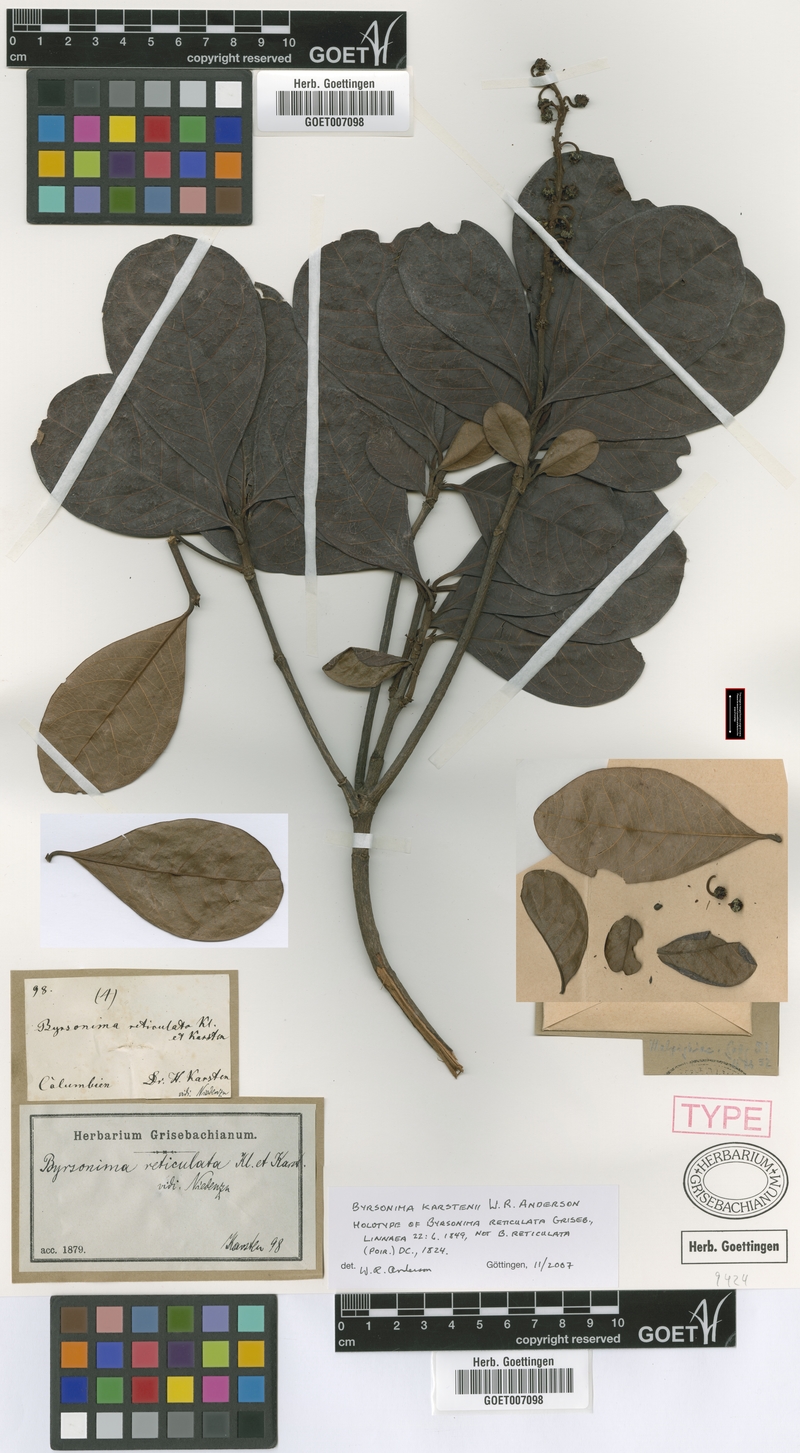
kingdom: Plantae
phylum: Tracheophyta
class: Magnoliopsida
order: Malpighiales
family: Malpighiaceae
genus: Byrsonima
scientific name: Byrsonima karstenii
